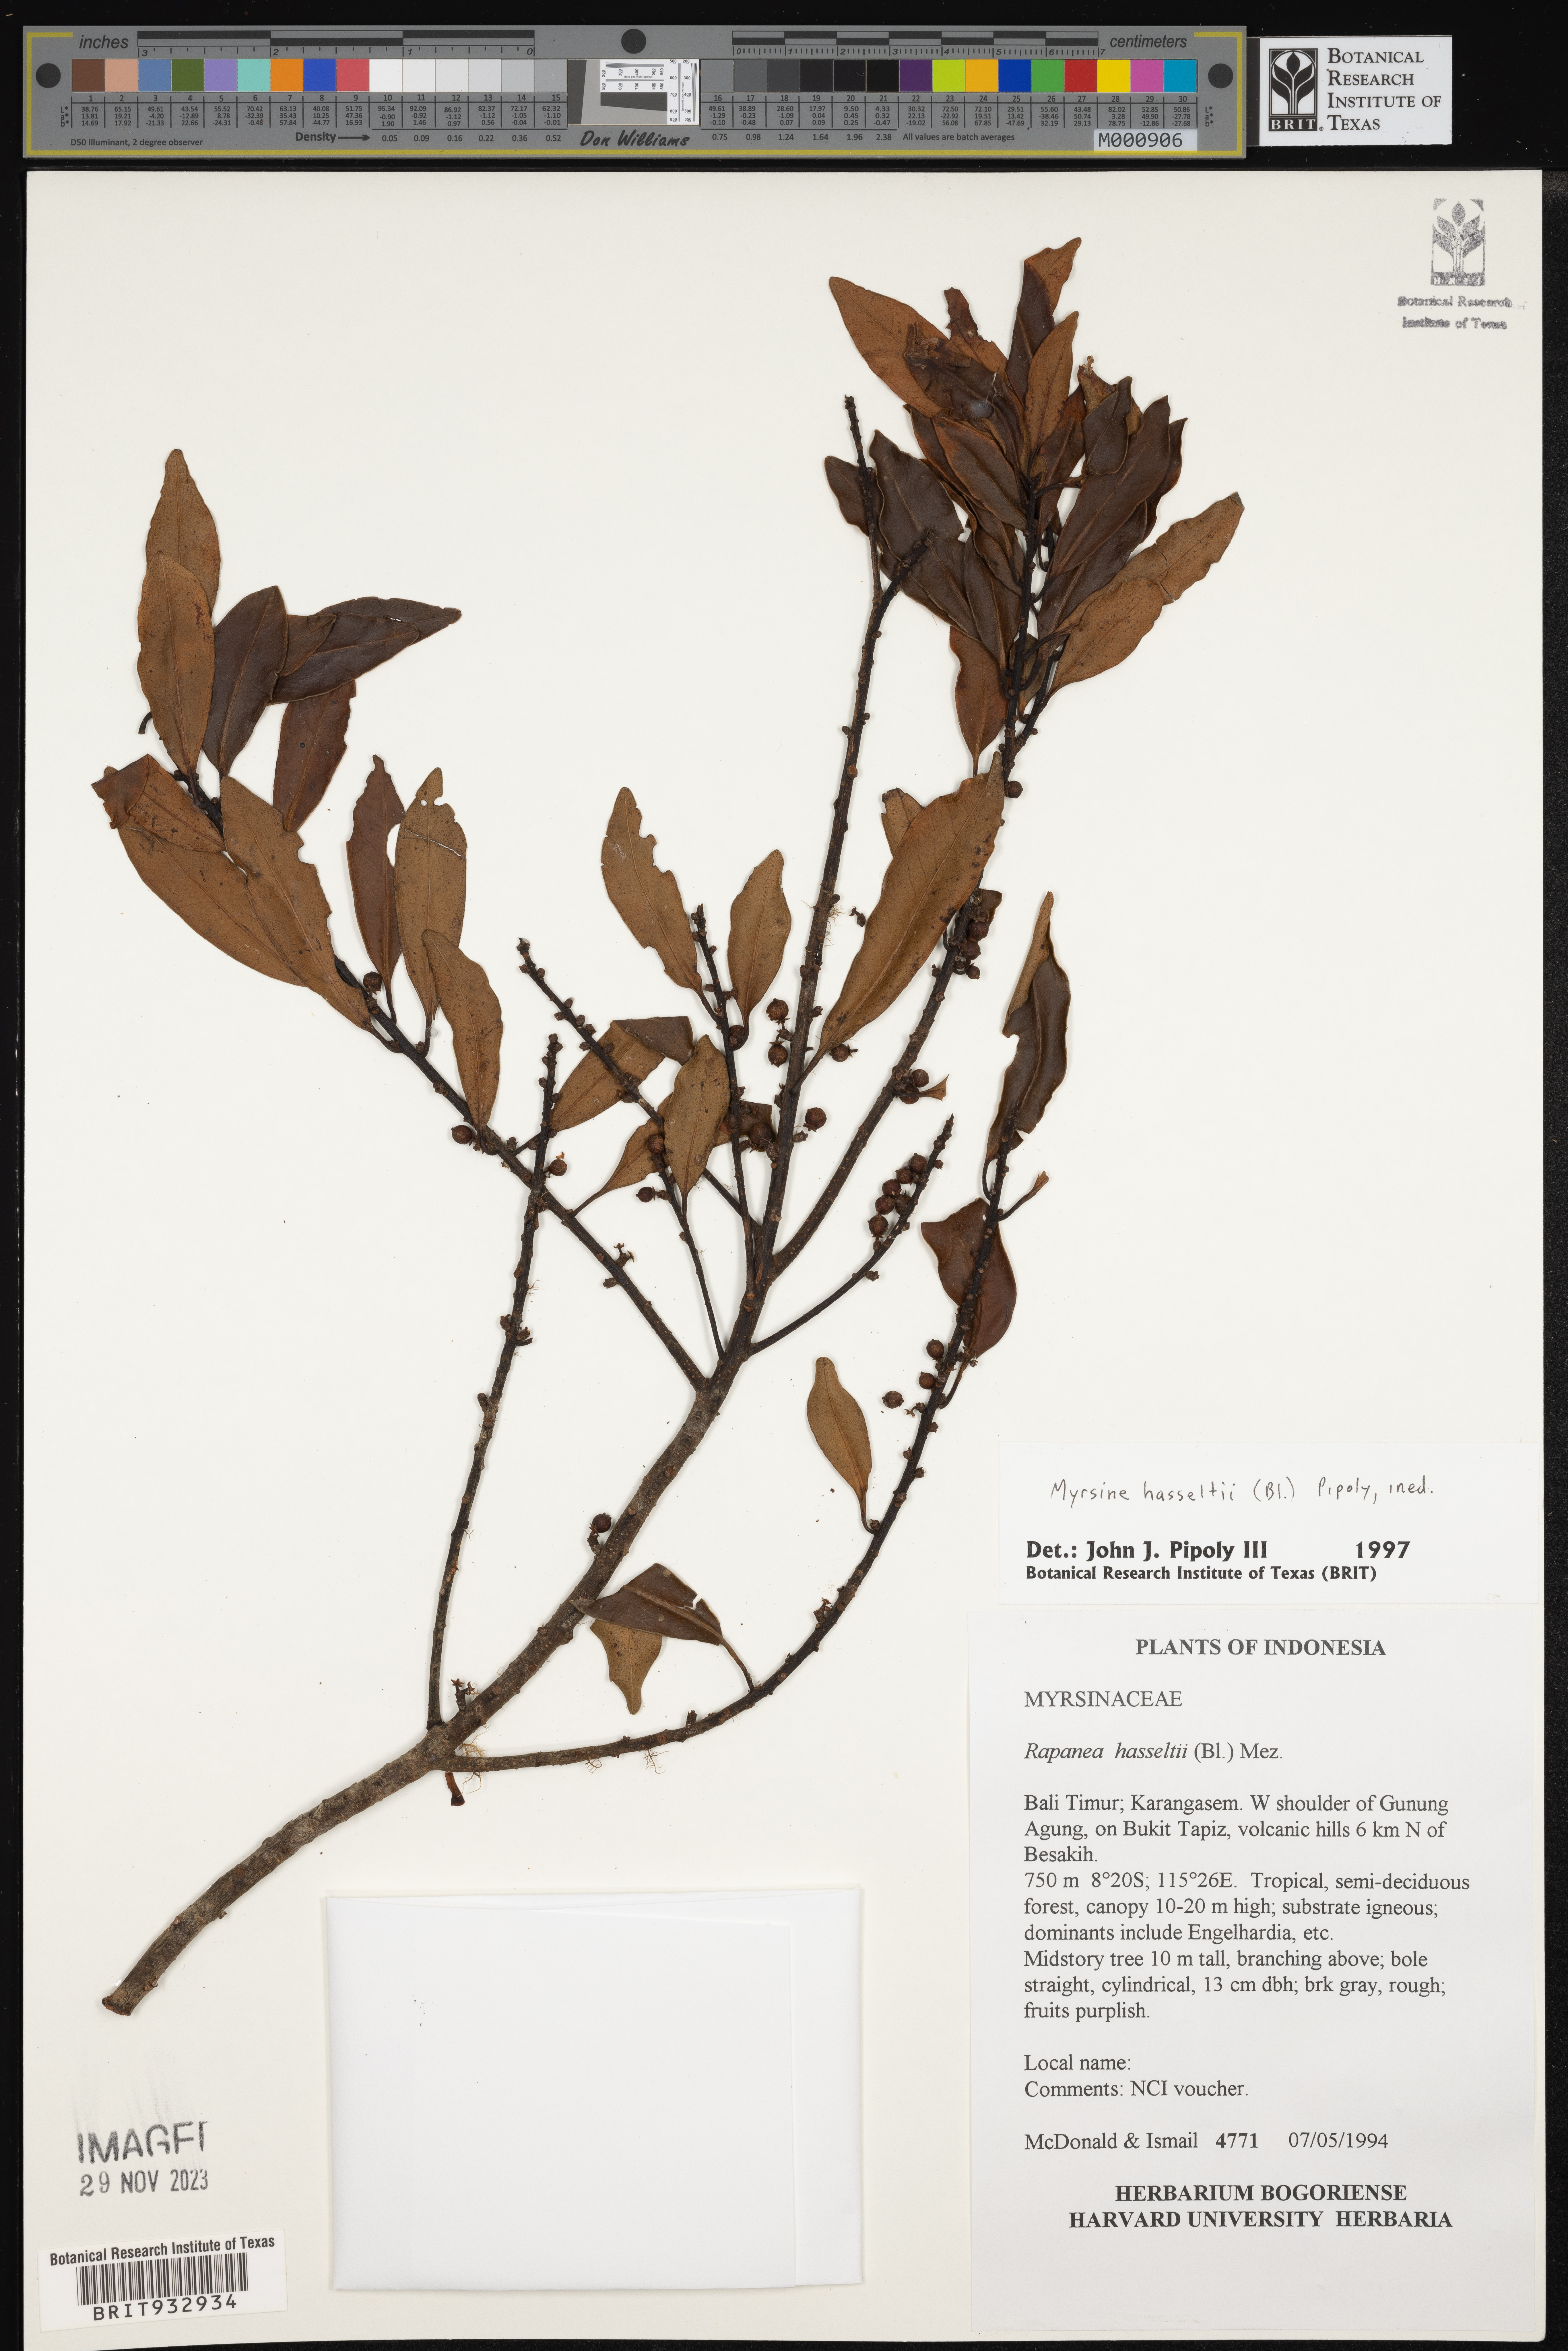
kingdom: Plantae
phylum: Tracheophyta
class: Magnoliopsida
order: Ericales
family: Primulaceae
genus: Myrsine
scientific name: Myrsine
